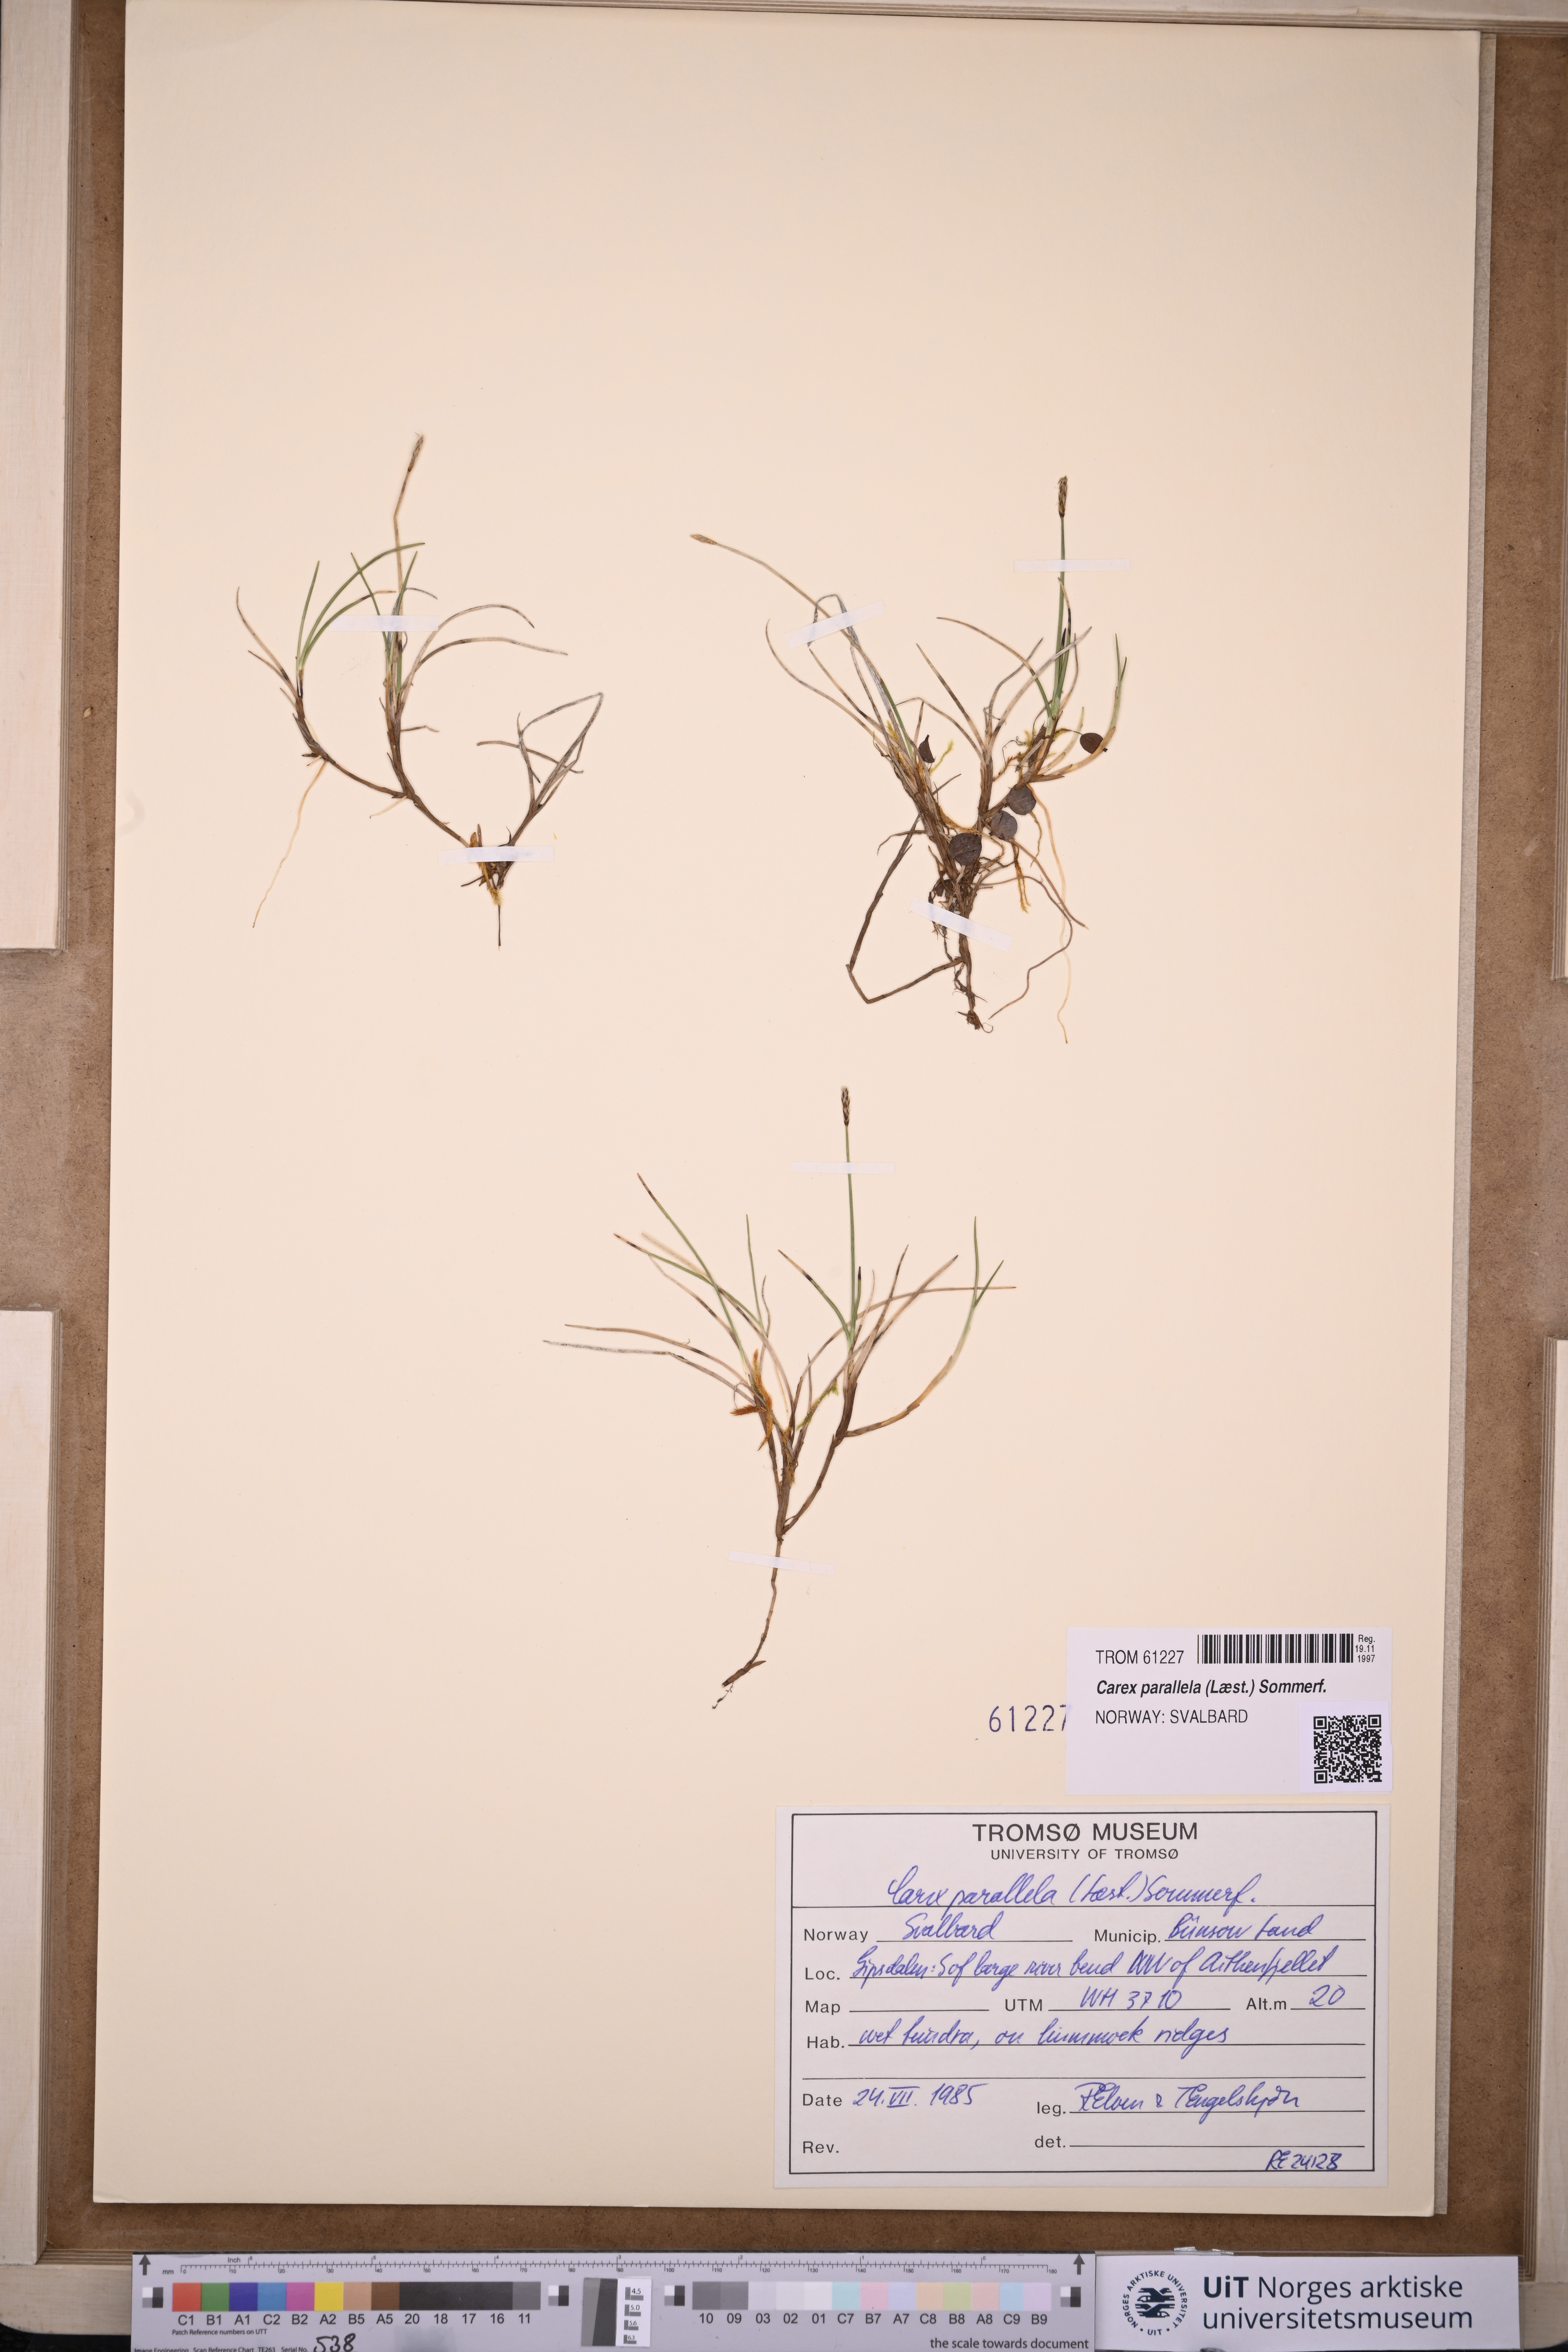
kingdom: Plantae
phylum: Tracheophyta
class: Liliopsida
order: Poales
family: Cyperaceae
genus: Carex
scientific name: Carex parallela
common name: Parallel sedge
